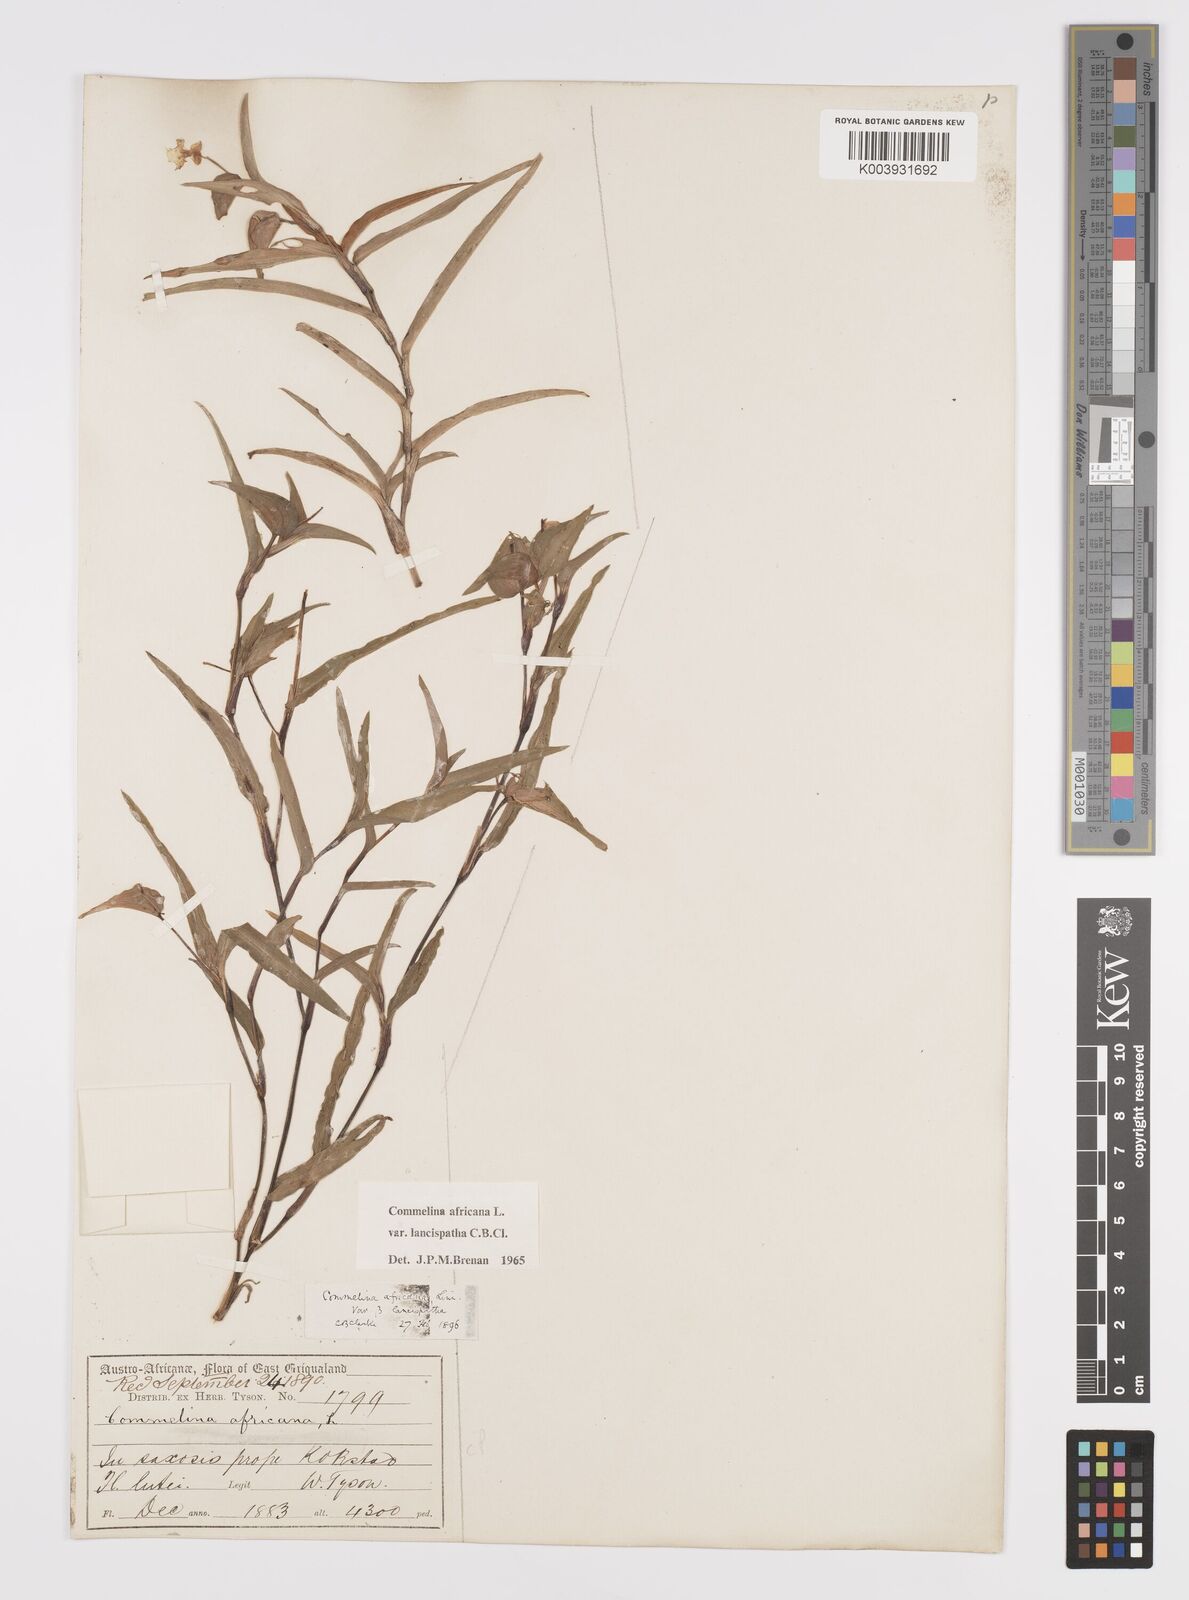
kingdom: Plantae
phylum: Tracheophyta
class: Liliopsida
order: Commelinales
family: Commelinaceae
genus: Commelina
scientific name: Commelina africana
